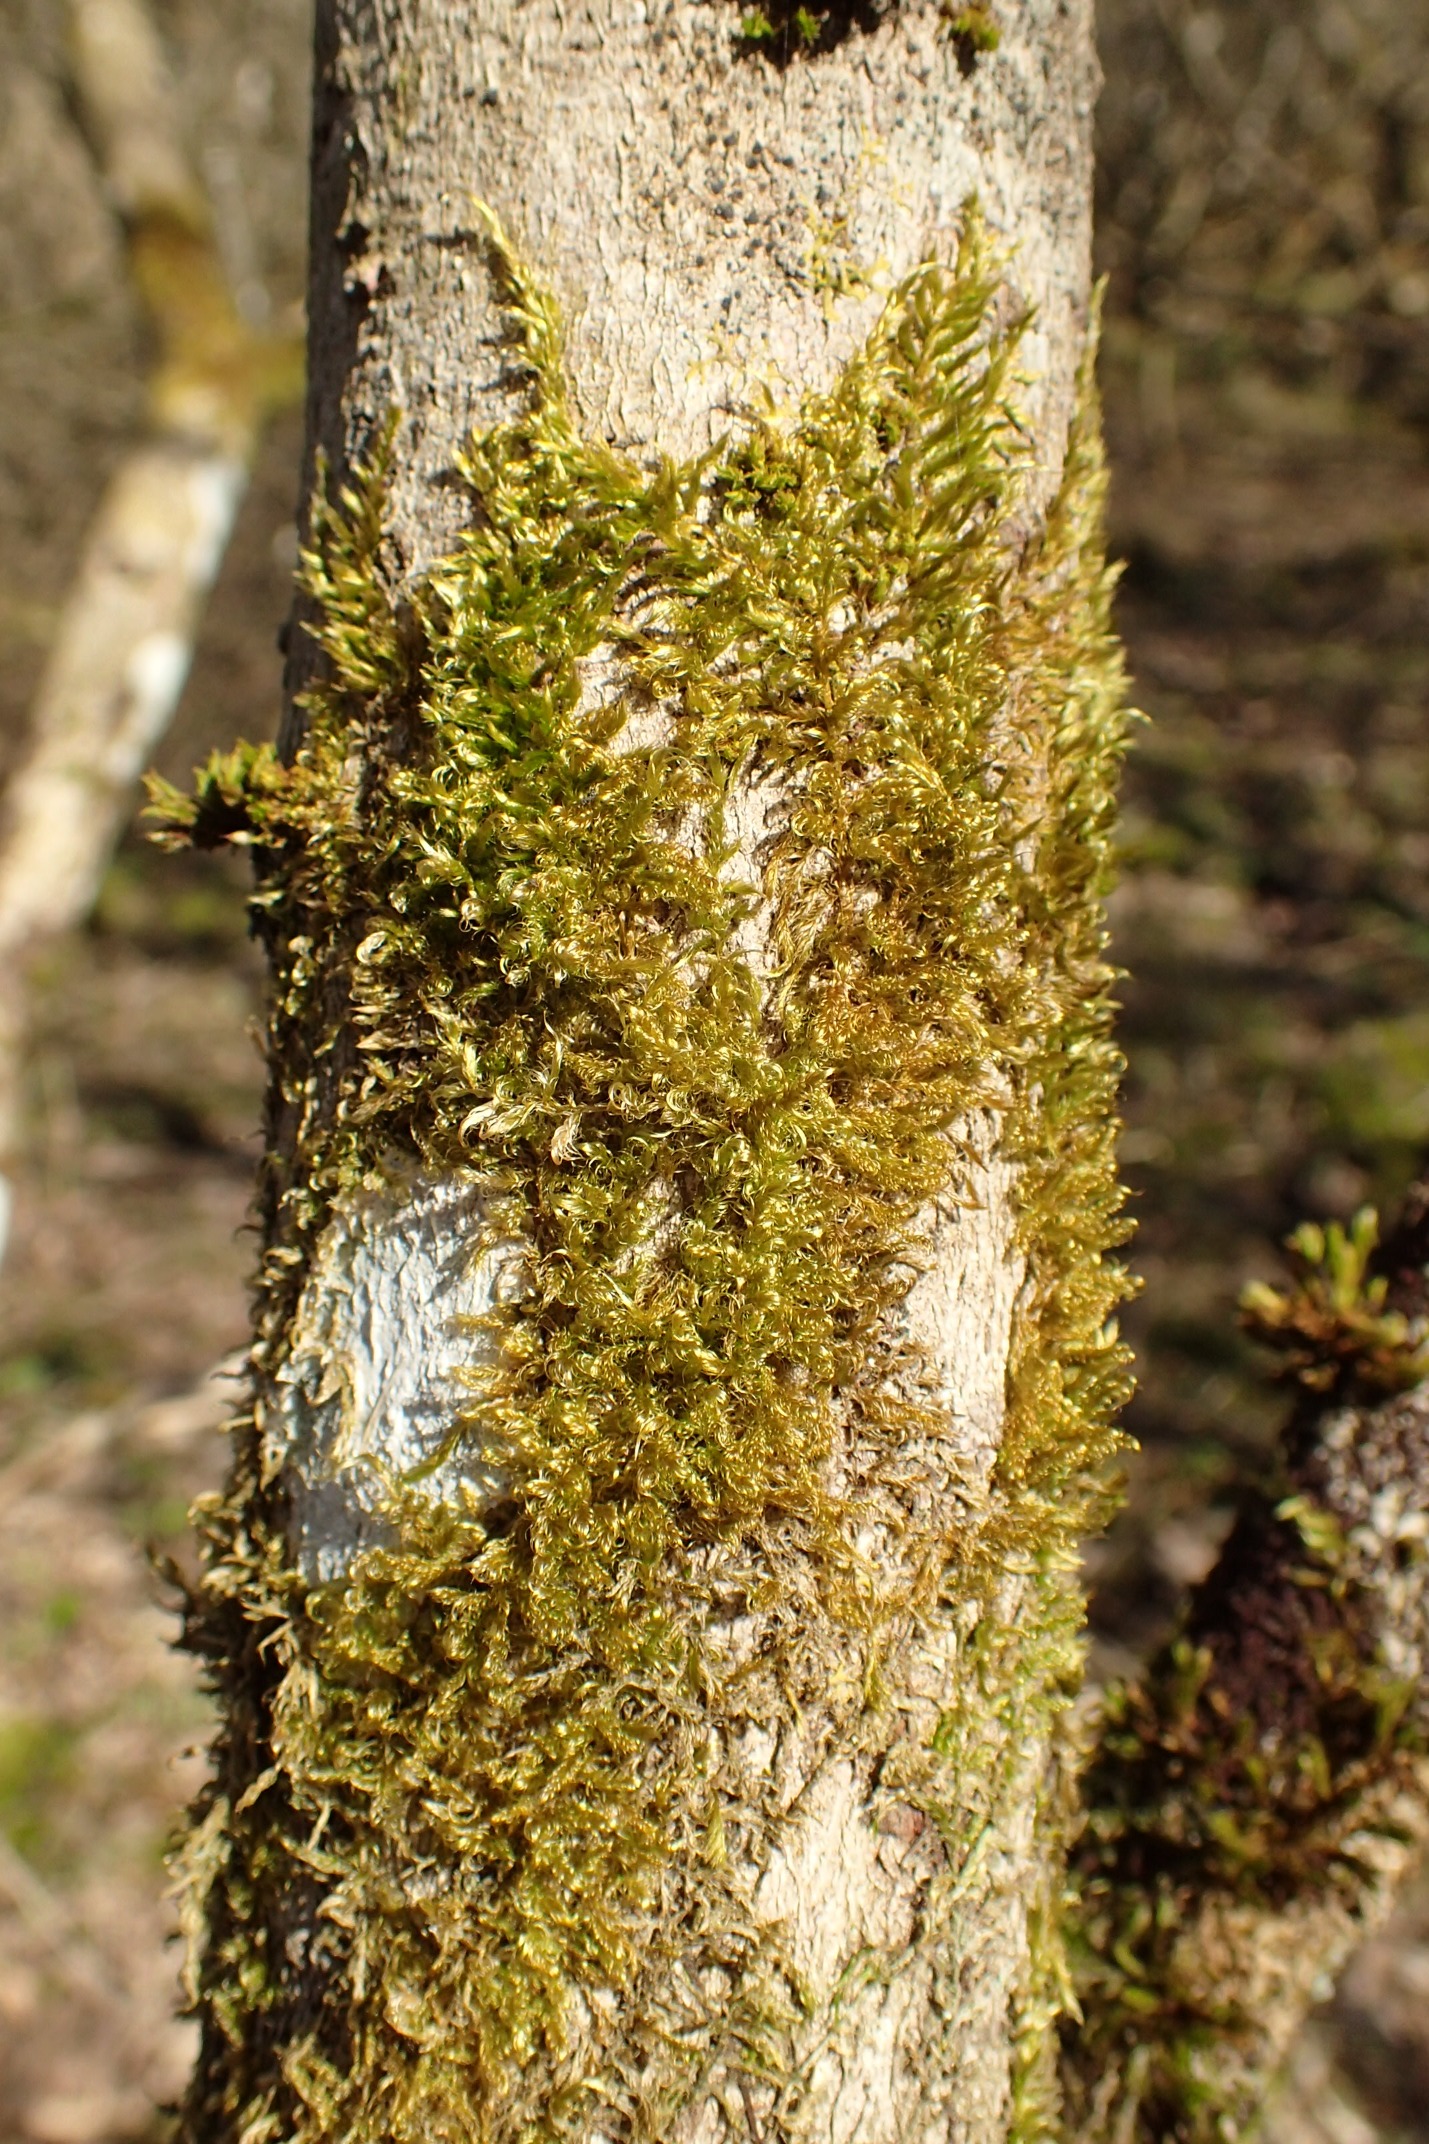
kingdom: Plantae
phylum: Bryophyta
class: Bryopsida
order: Hypnales
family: Scorpidiaceae
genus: Sanionia
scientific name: Sanionia uncinata
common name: Stribet krogblad
